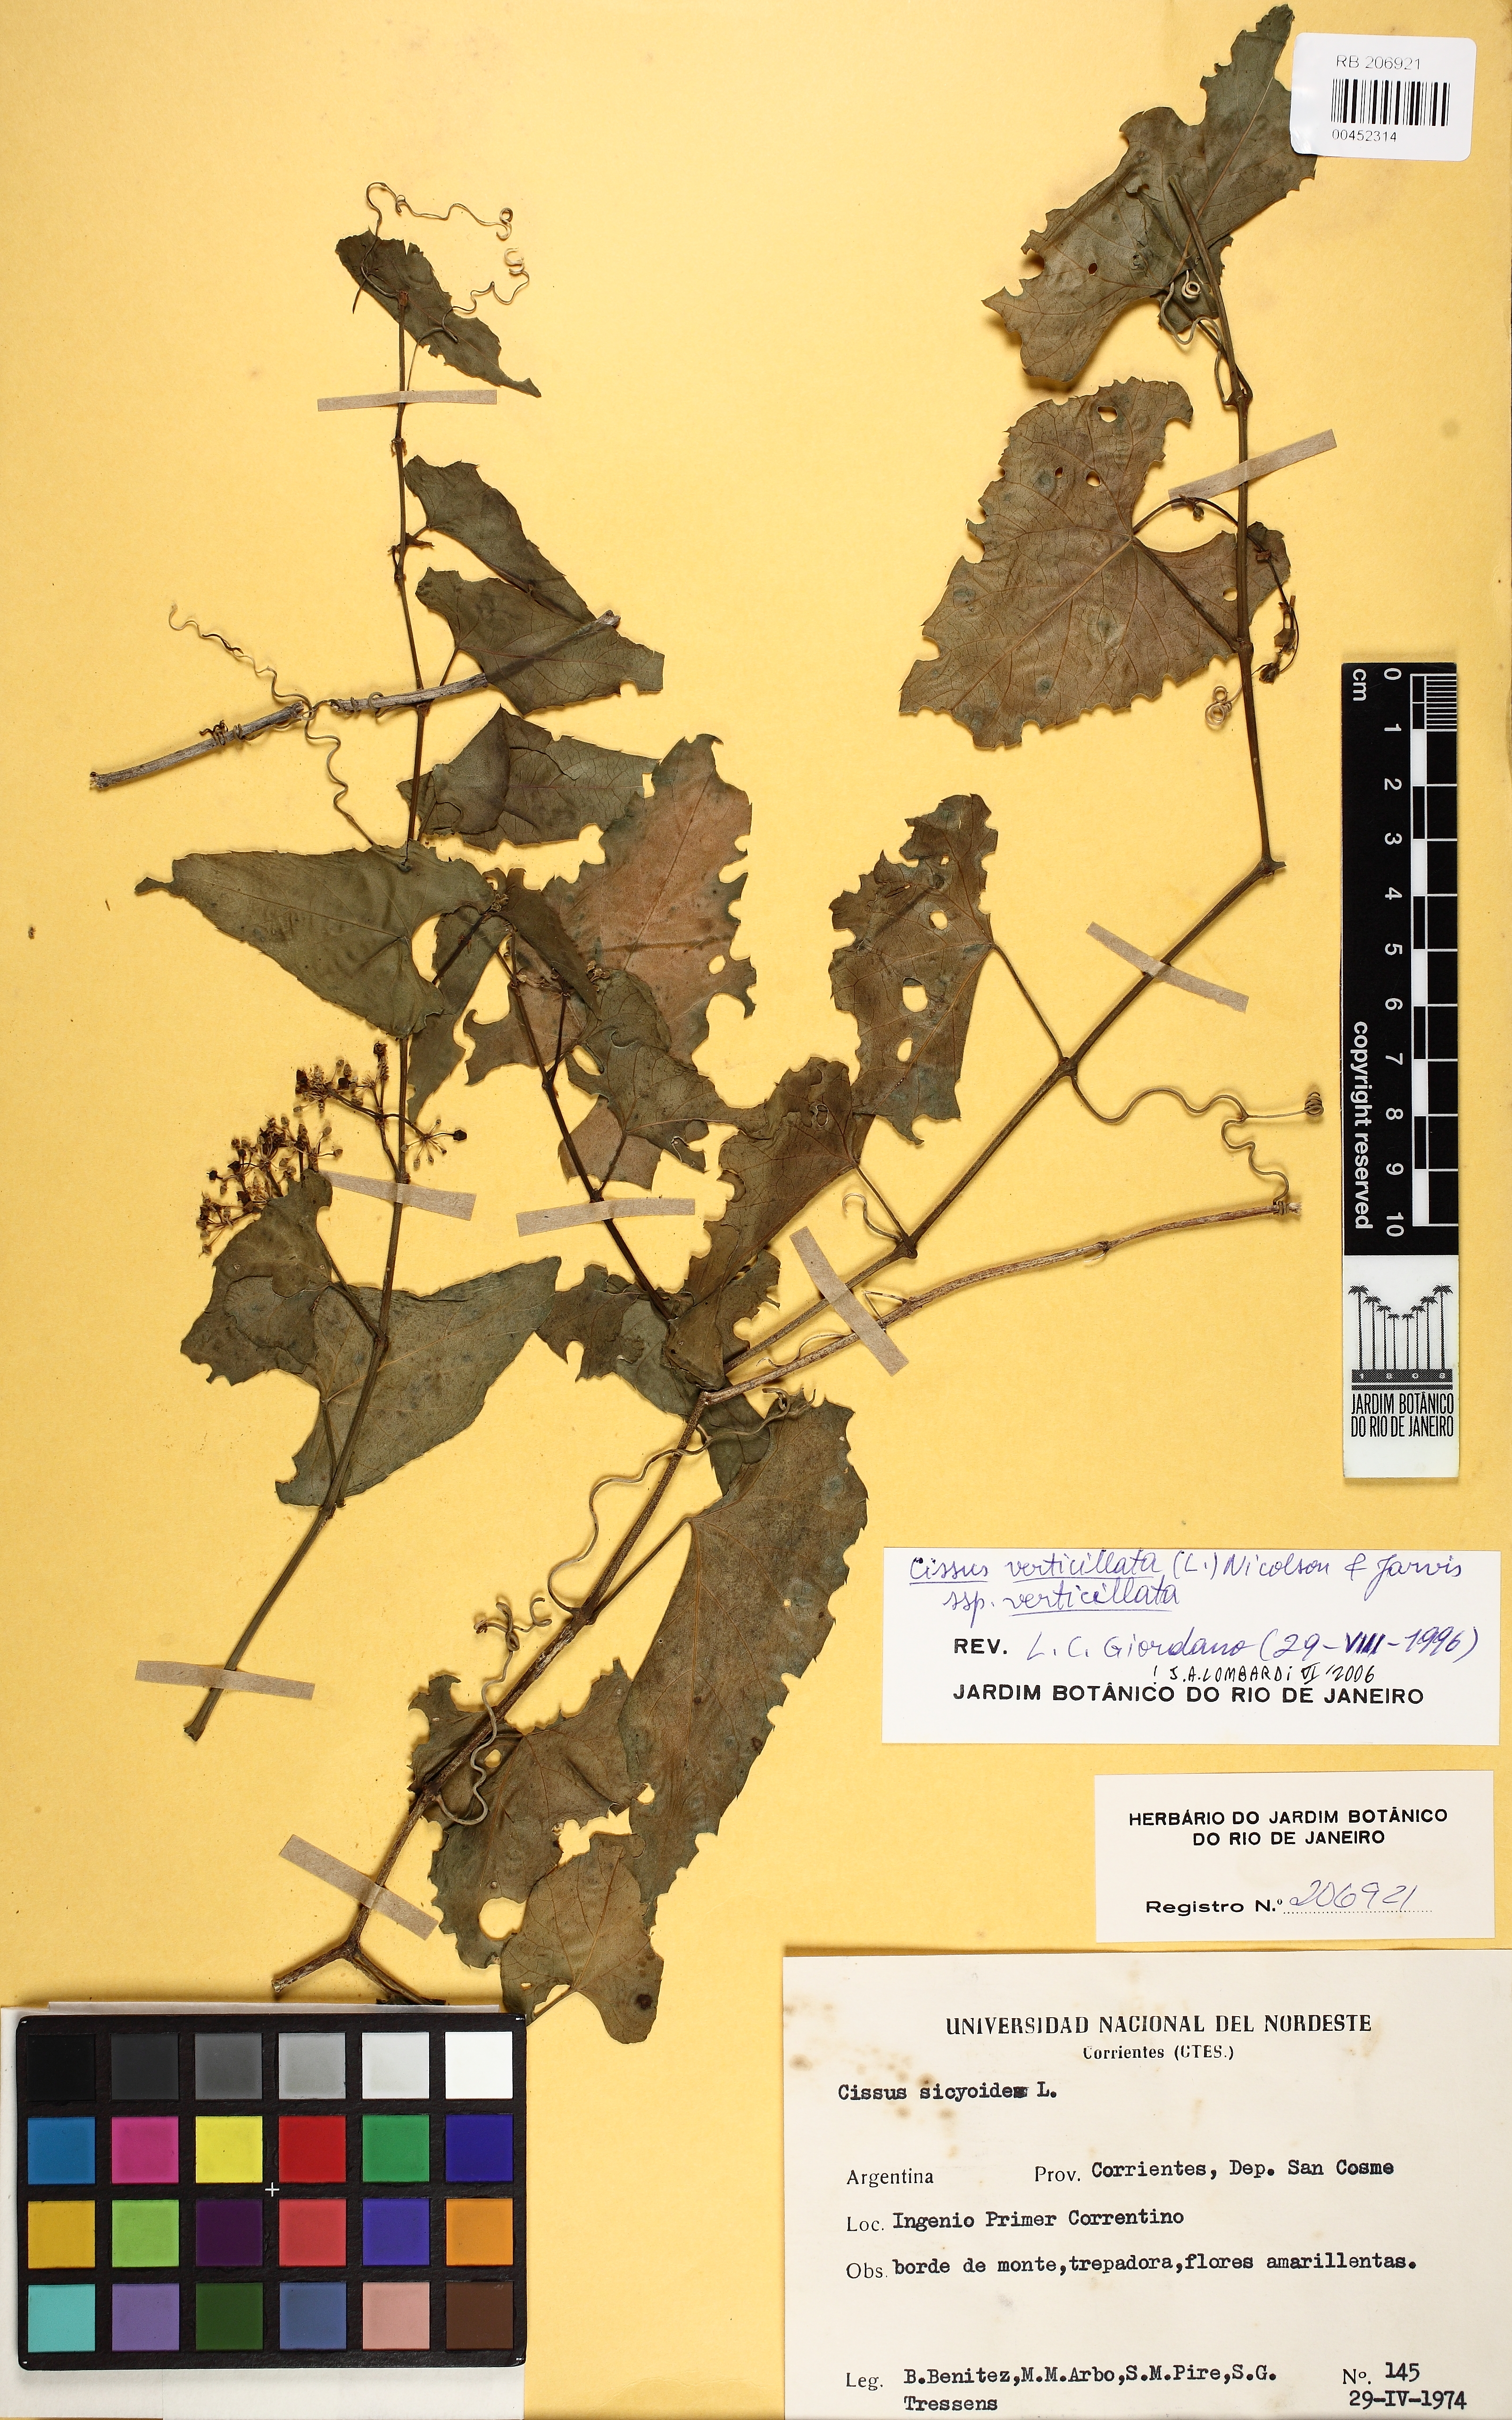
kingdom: Plantae
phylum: Tracheophyta
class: Magnoliopsida
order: Vitales
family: Vitaceae
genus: Cissus
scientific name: Cissus verticillata
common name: Princess vine
